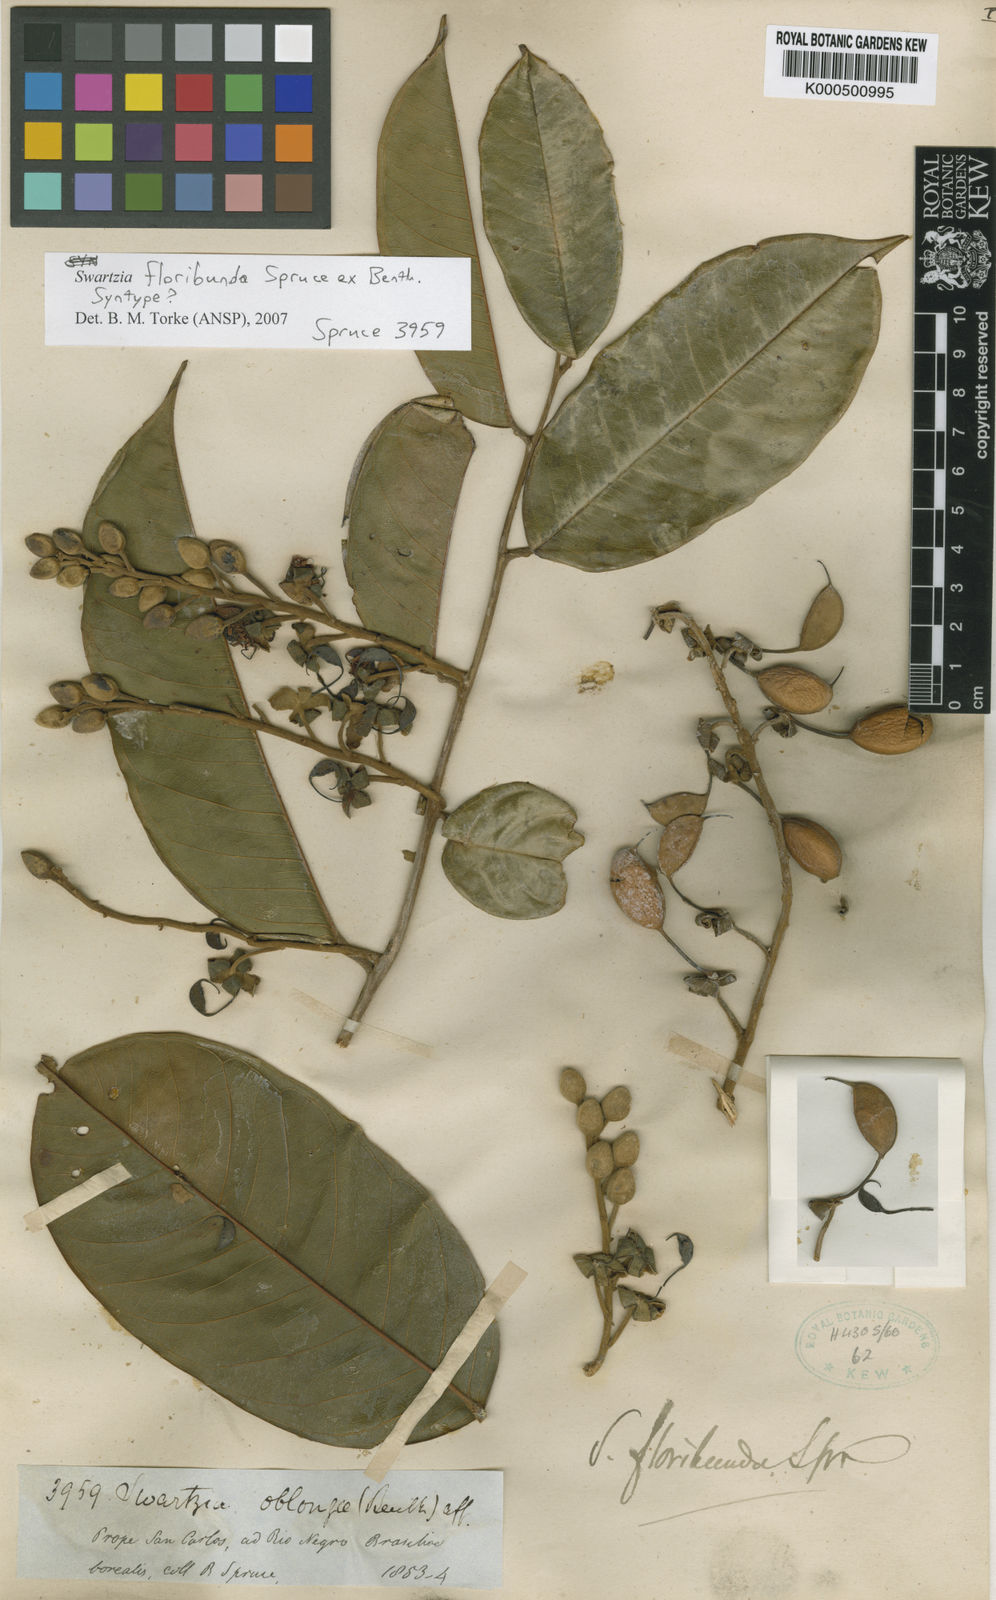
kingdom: Plantae
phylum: Tracheophyta
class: Magnoliopsida
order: Fabales
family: Fabaceae
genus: Swartzia
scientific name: Swartzia floribunda
